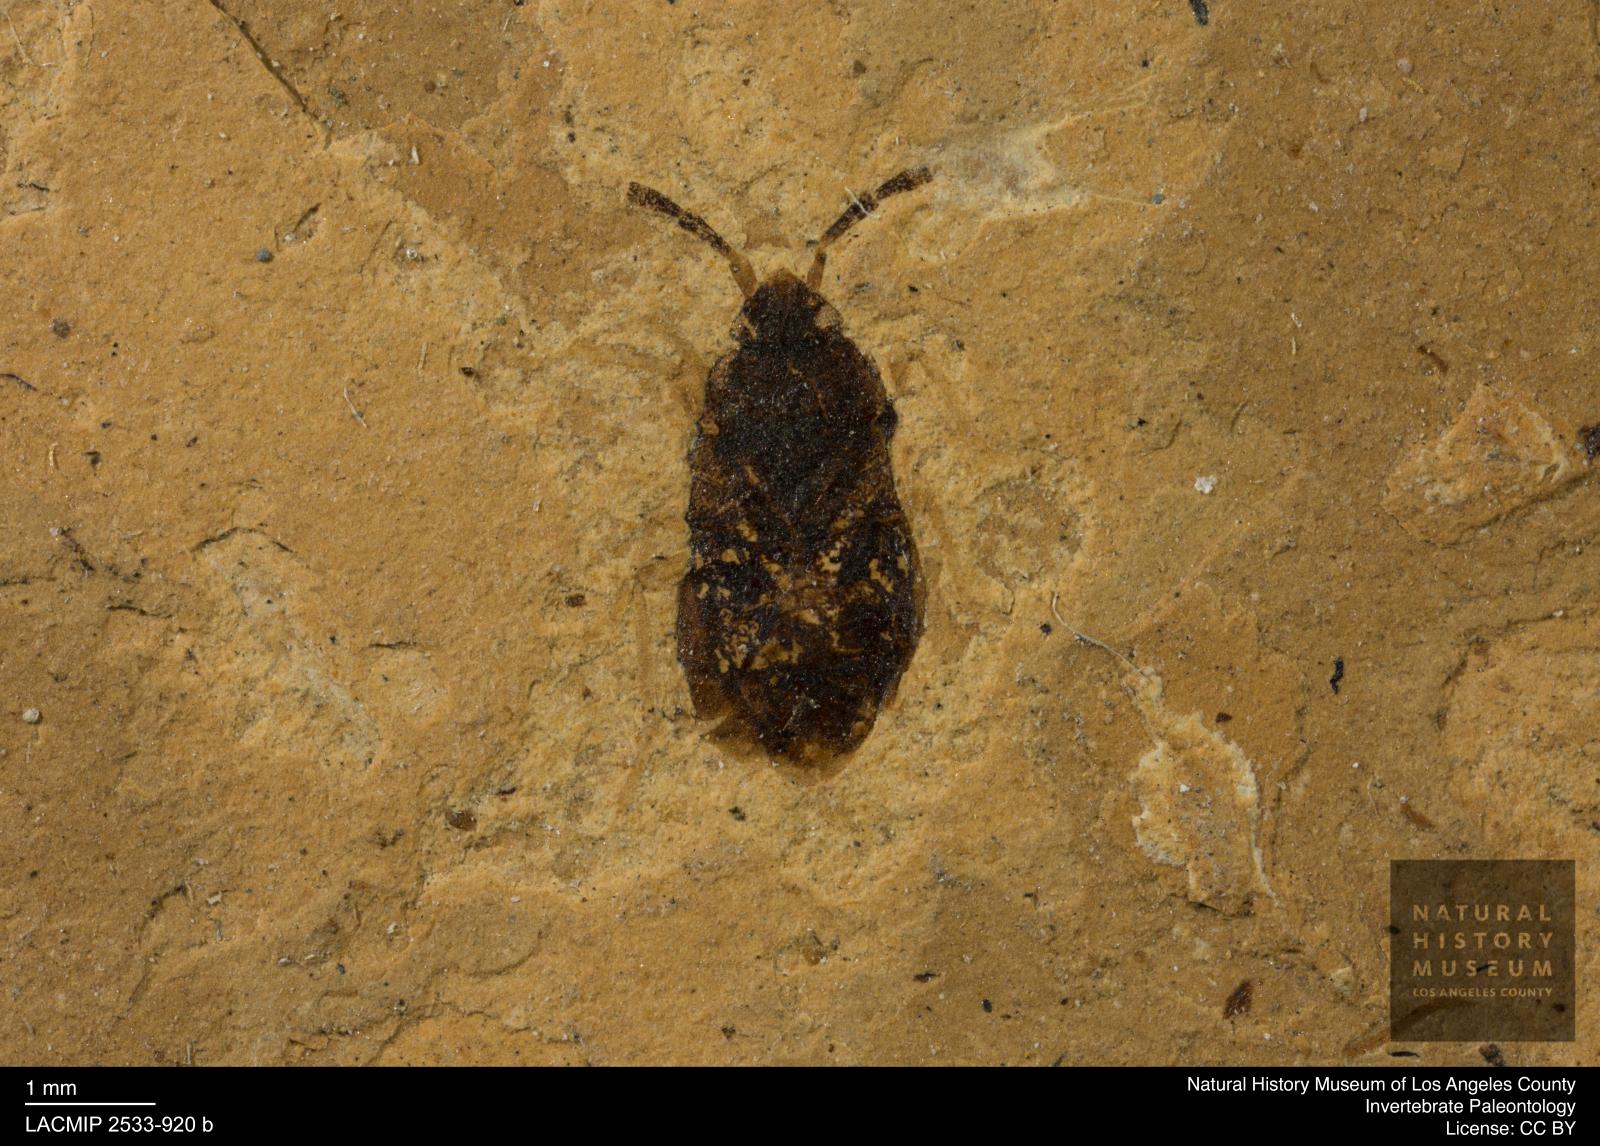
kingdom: Animalia
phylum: Arthropoda
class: Insecta
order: Hemiptera
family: Rhyparochromidae
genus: Drymus
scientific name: Drymus punctatus
